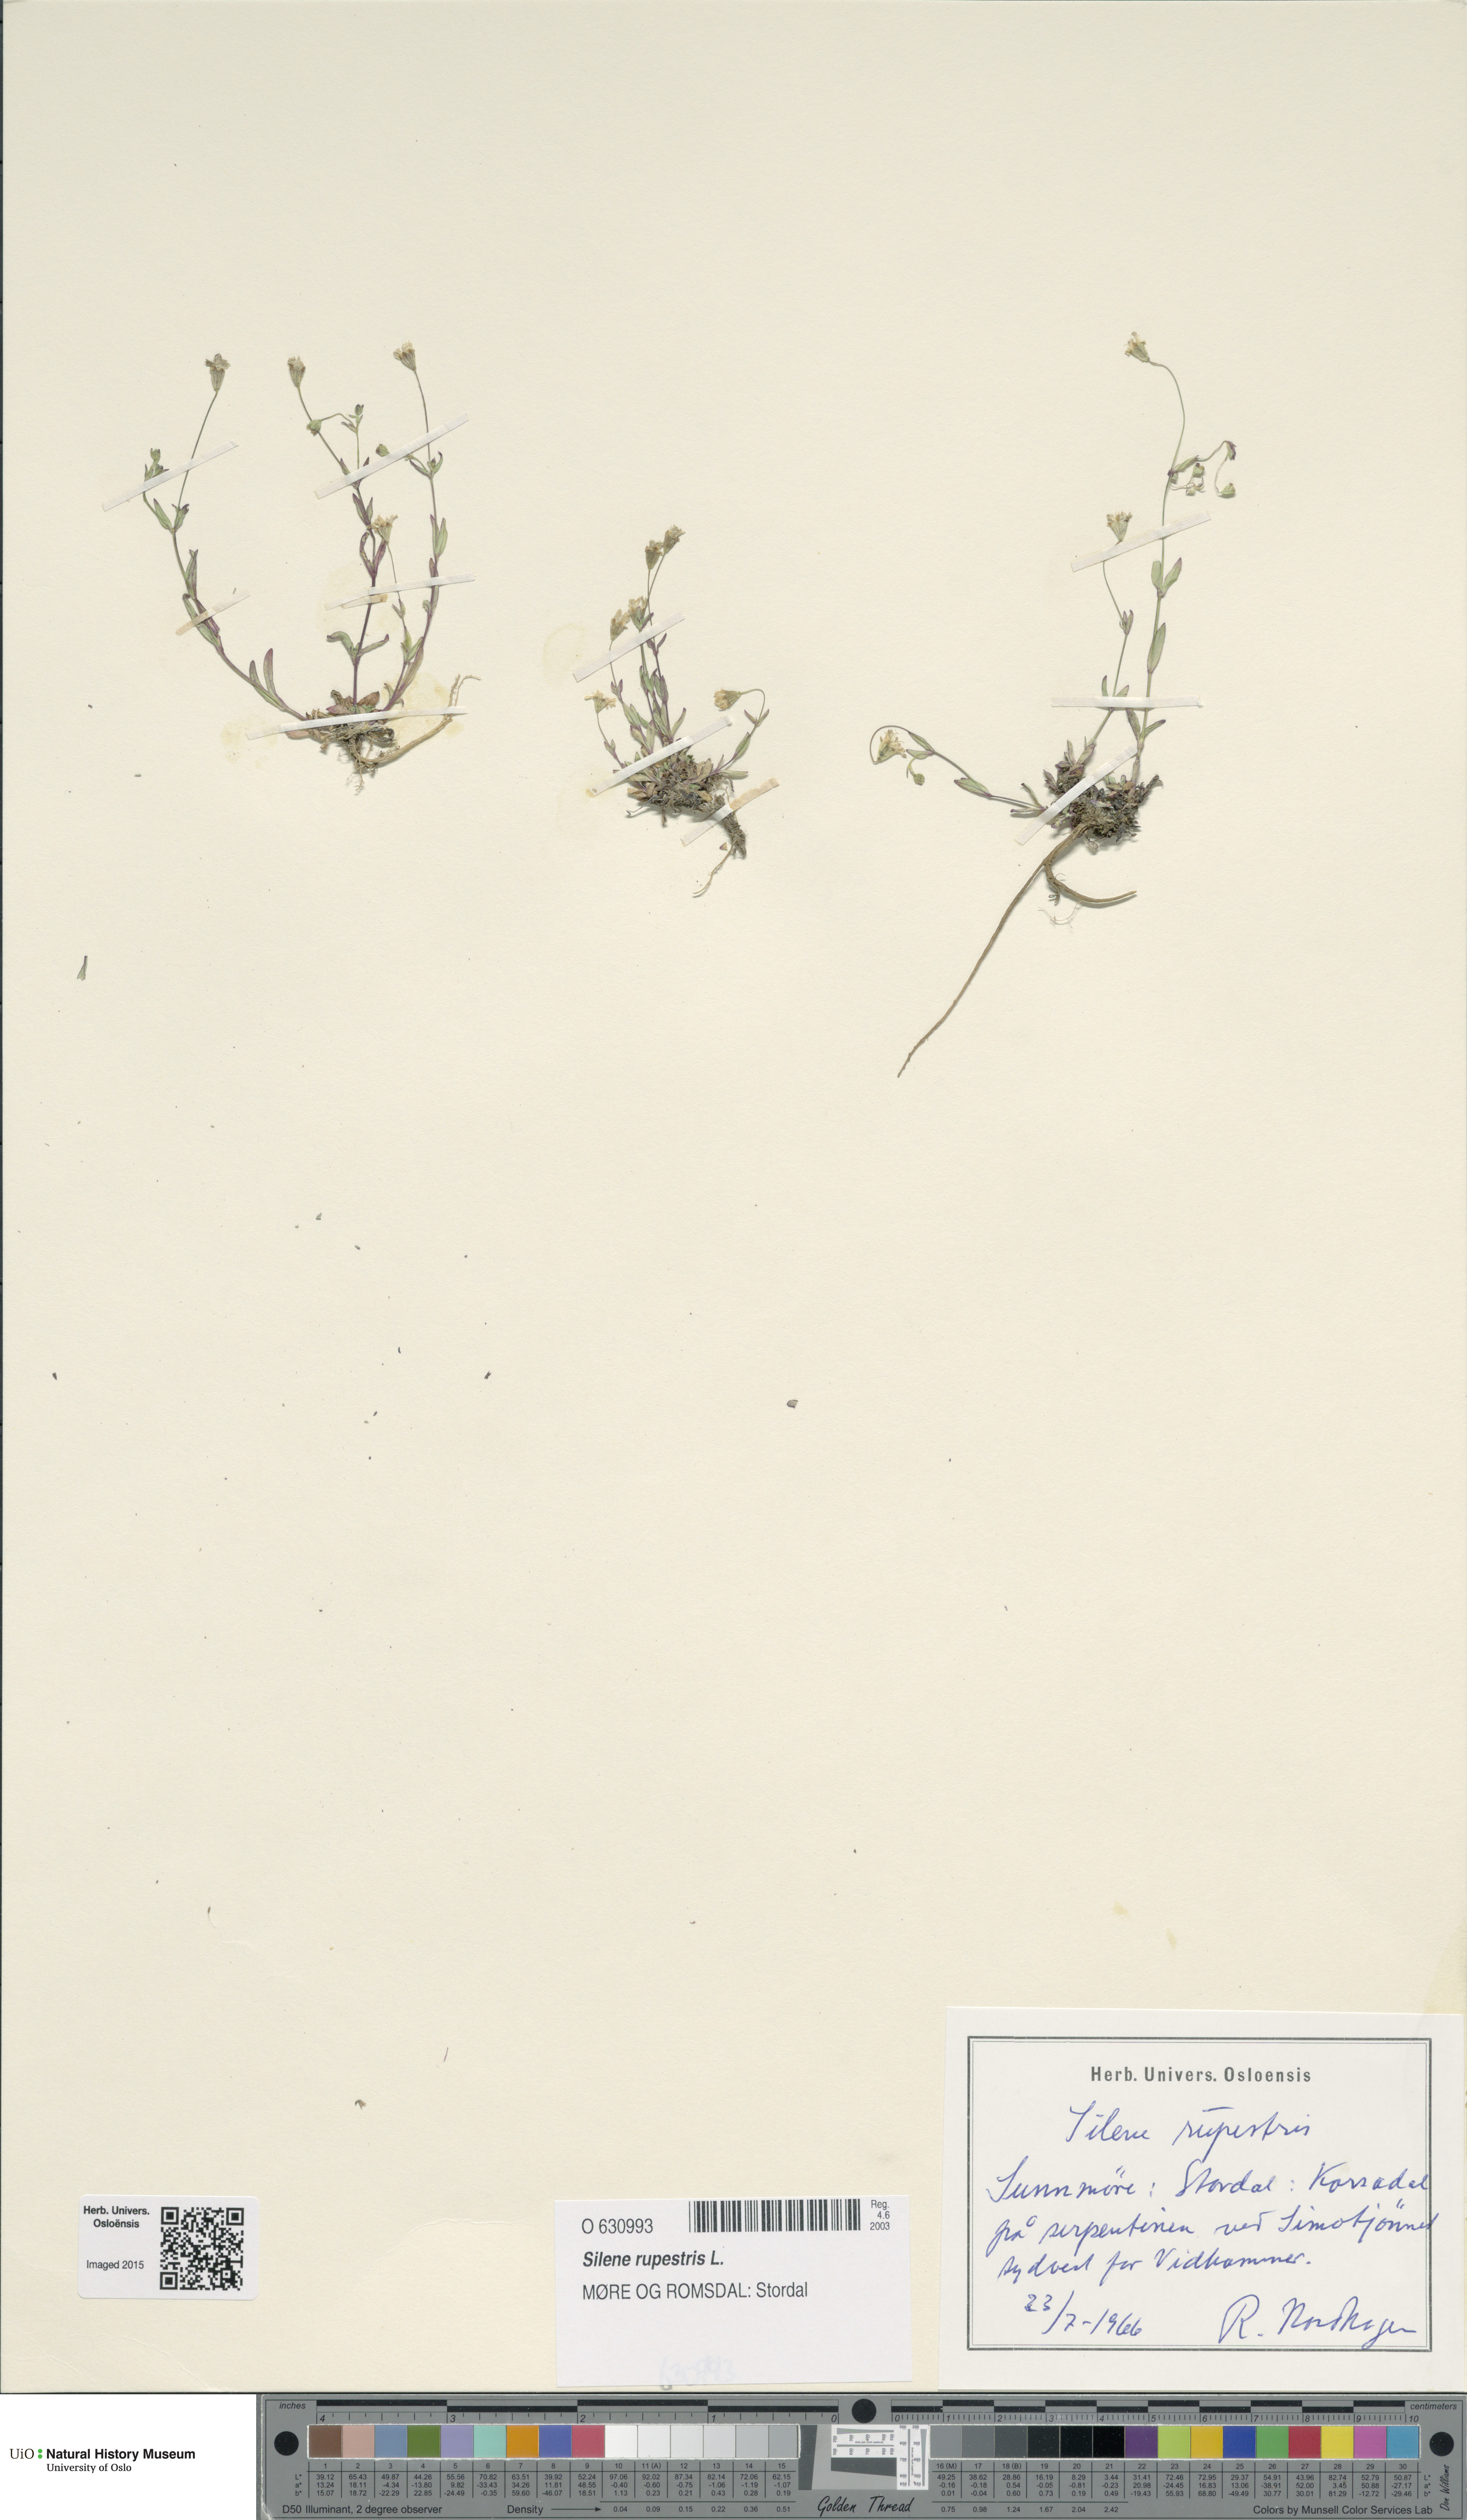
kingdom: Plantae
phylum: Tracheophyta
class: Magnoliopsida
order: Caryophyllales
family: Caryophyllaceae
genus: Atocion
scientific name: Atocion rupestre
